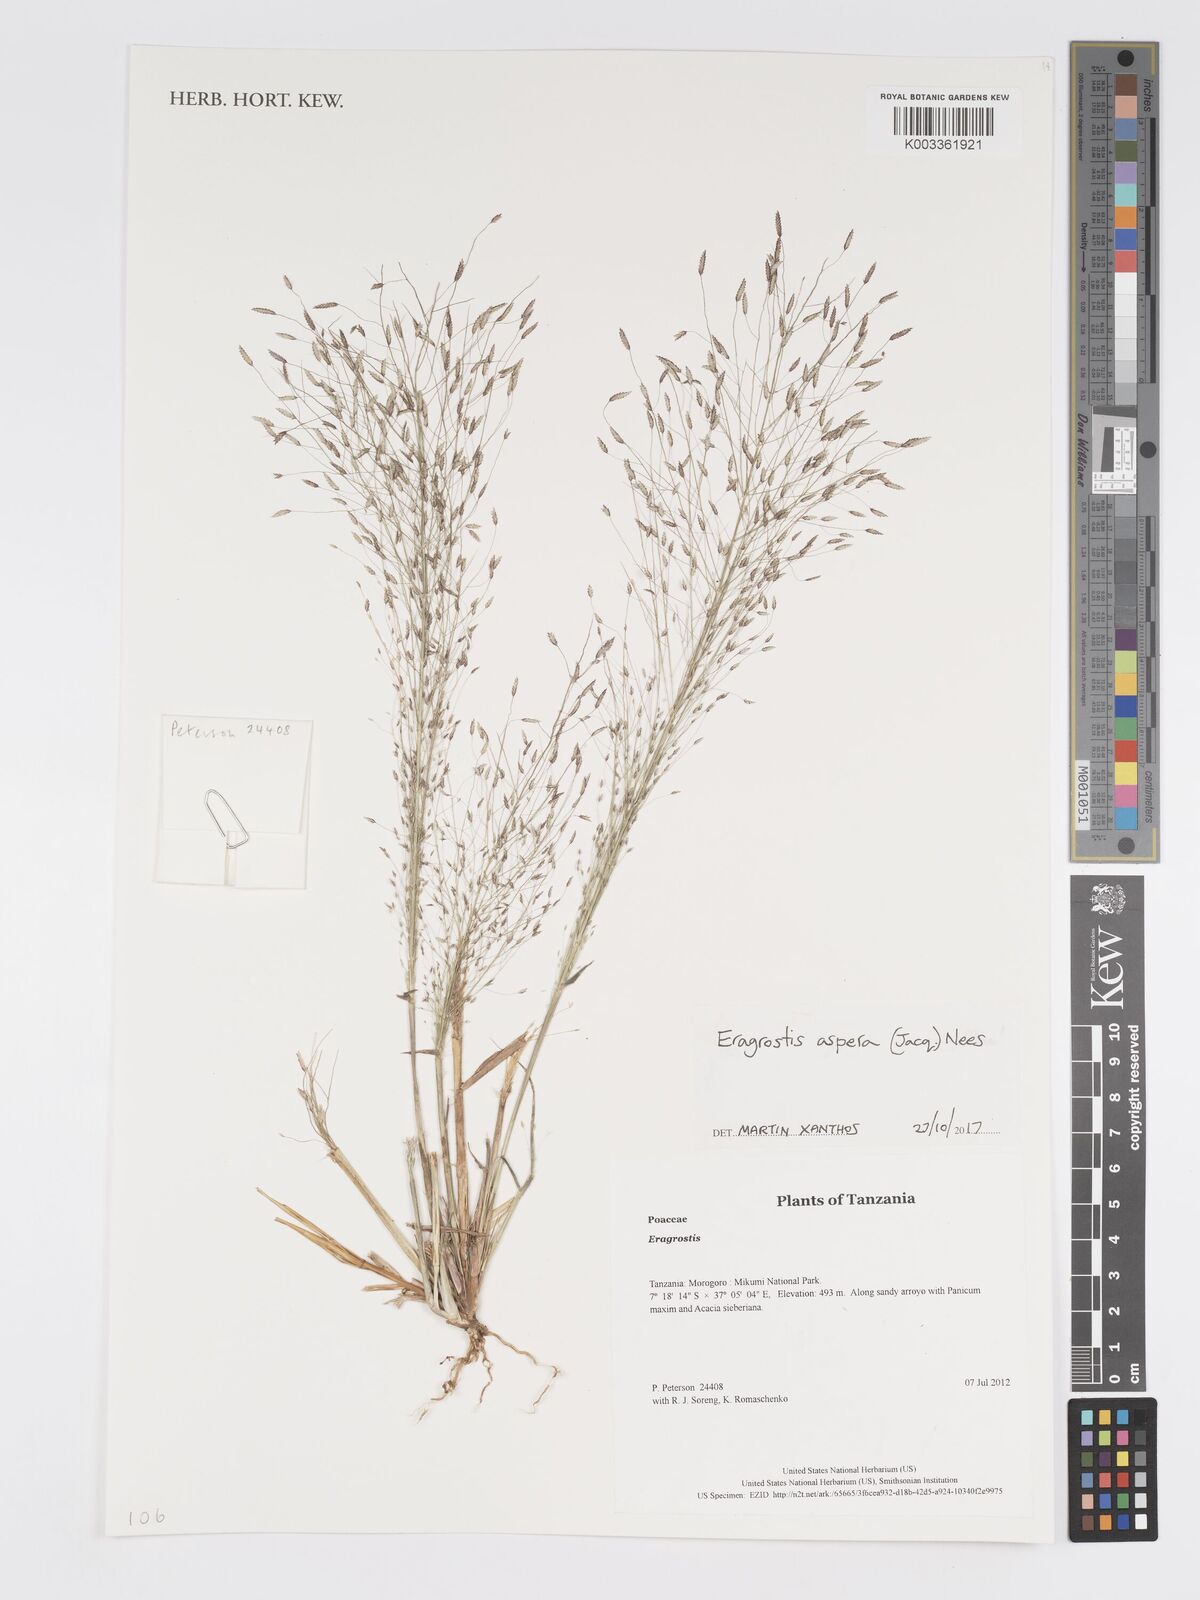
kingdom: Plantae
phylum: Tracheophyta
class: Liliopsida
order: Poales
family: Poaceae
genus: Eragrostis
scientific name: Eragrostis aspera
